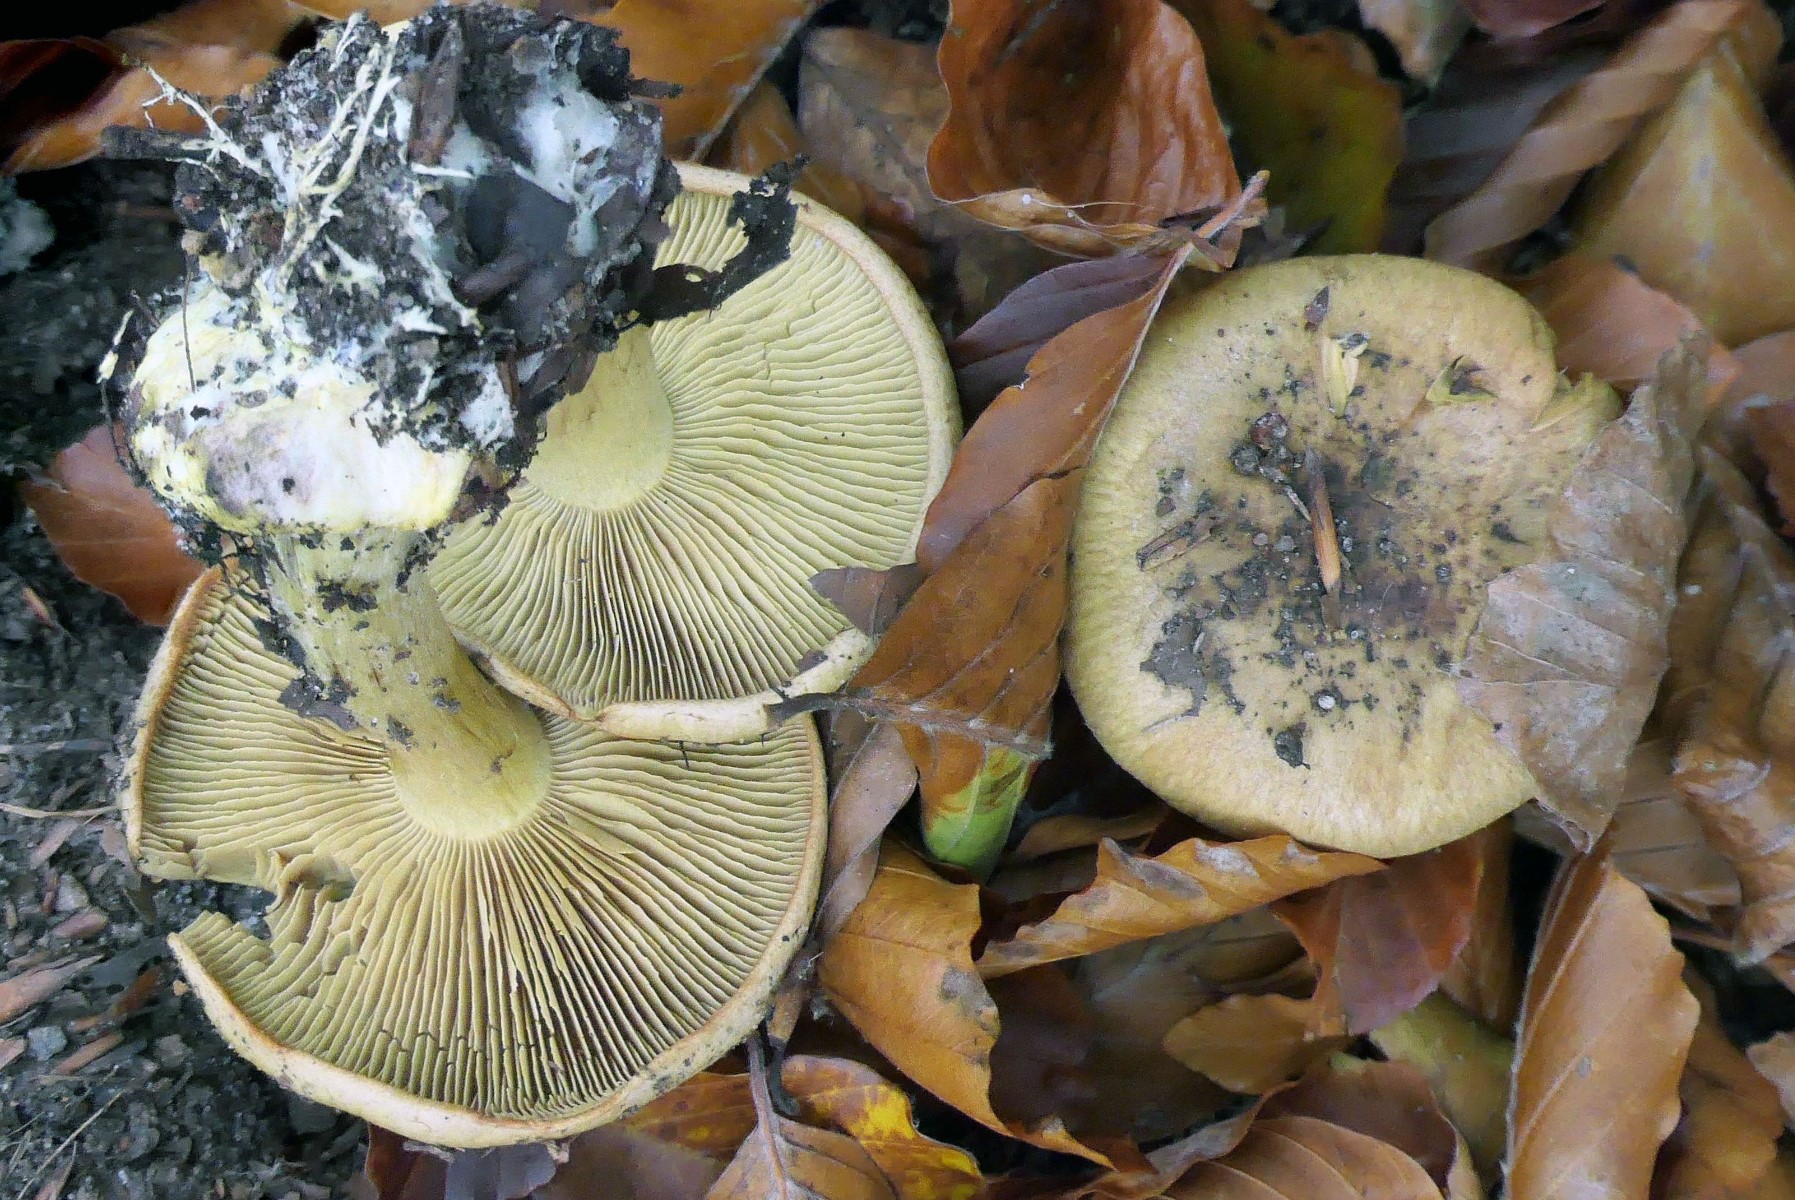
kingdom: Fungi
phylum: Basidiomycota
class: Agaricomycetes
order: Agaricales
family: Cortinariaceae
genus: Calonarius
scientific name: Calonarius citrinus
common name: citrongul slørhat
